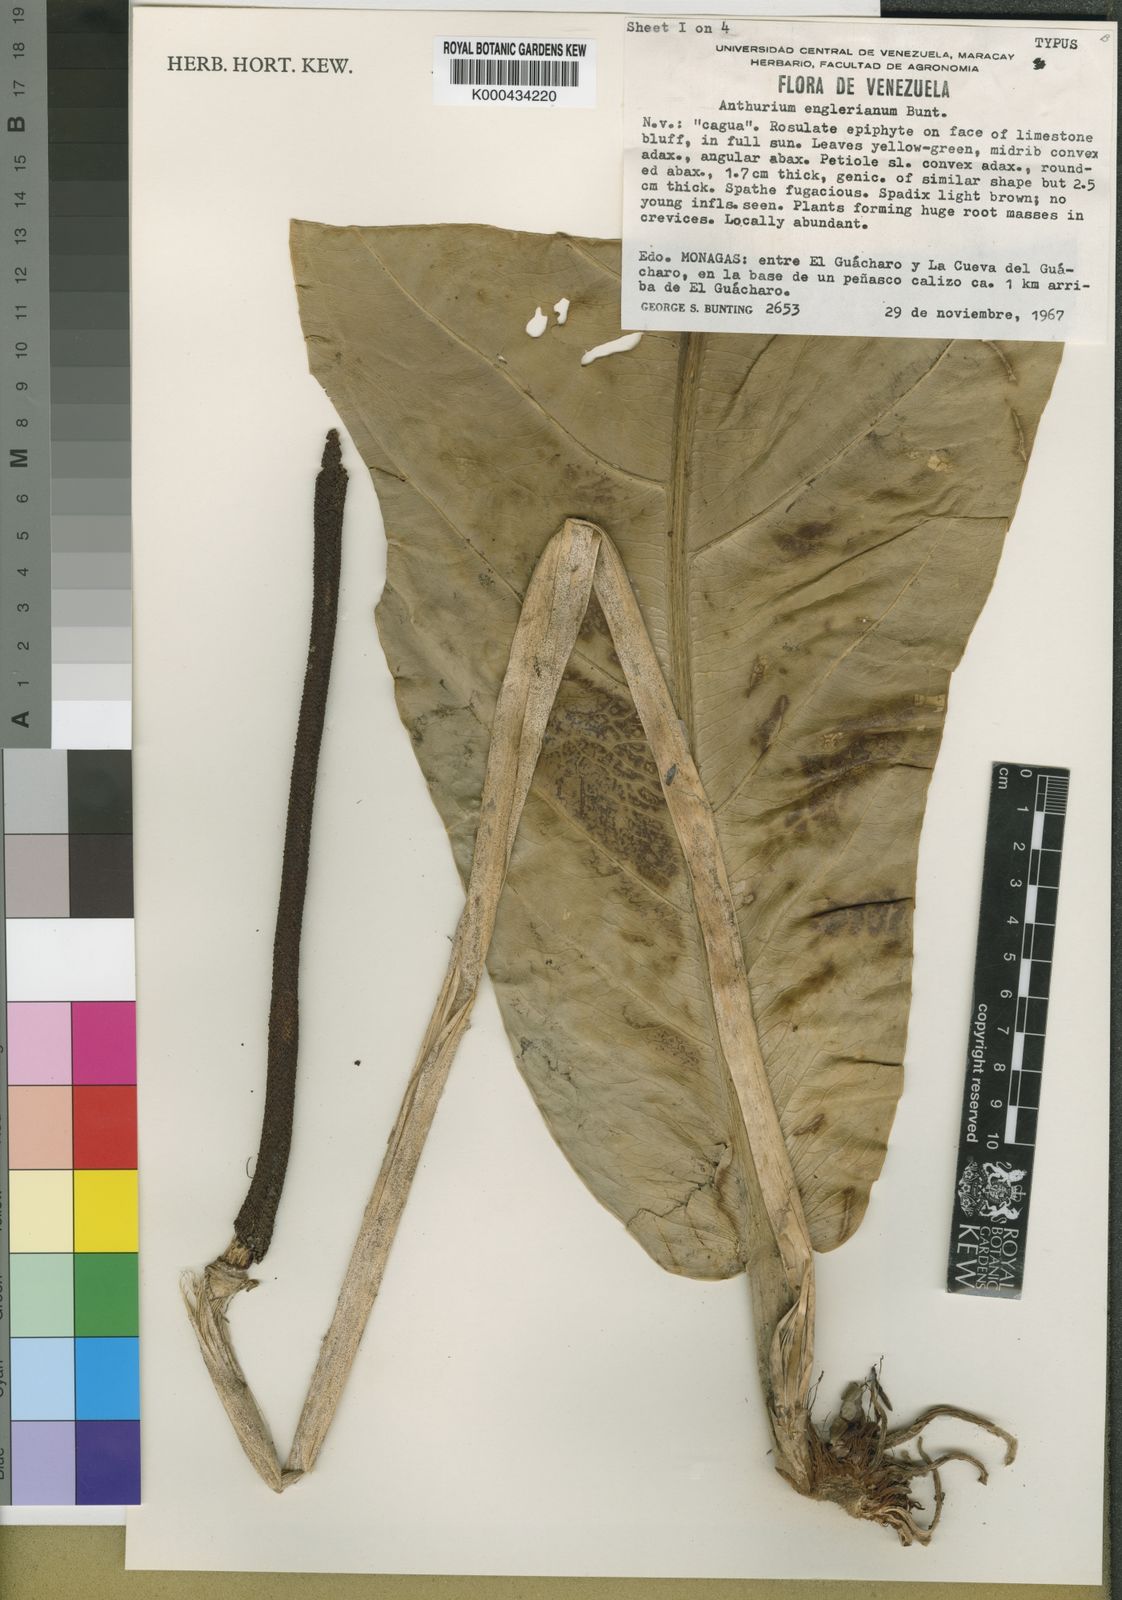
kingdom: Plantae
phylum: Tracheophyta
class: Liliopsida
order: Alismatales
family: Araceae
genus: Anthurium
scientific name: Anthurium jenmanii
